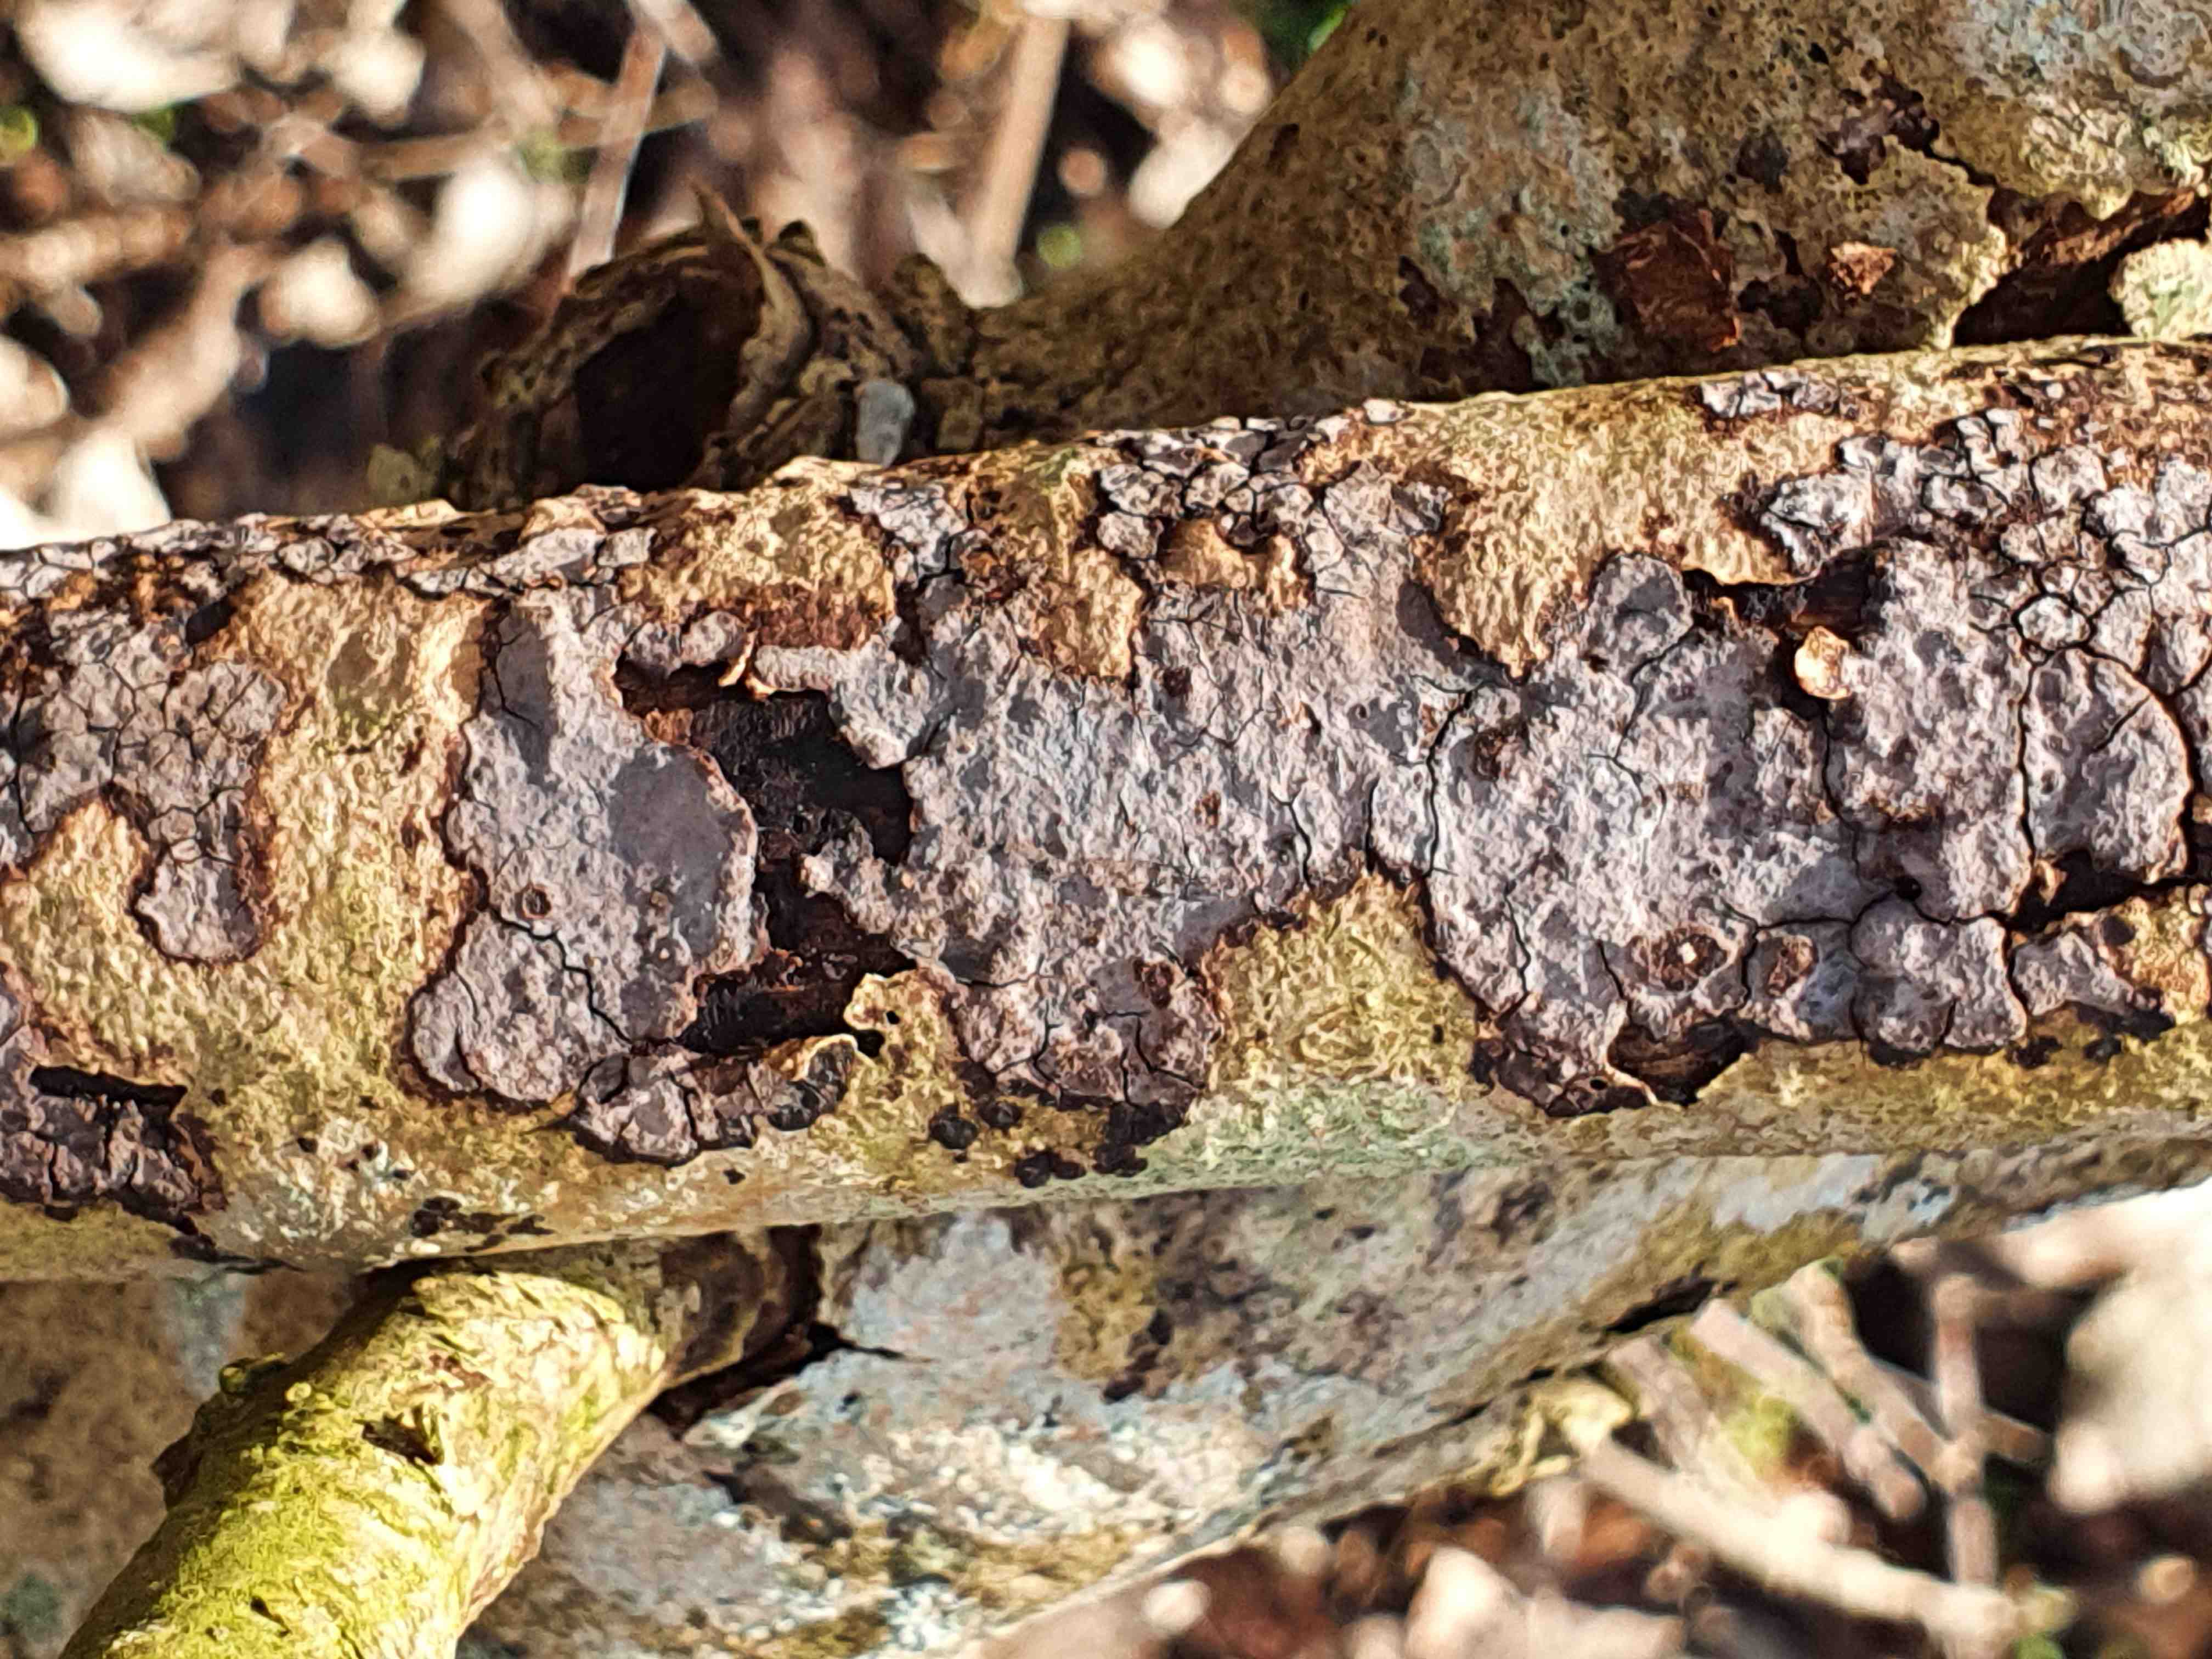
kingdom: Fungi
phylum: Basidiomycota
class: Agaricomycetes
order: Russulales
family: Peniophoraceae
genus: Peniophora
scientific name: Peniophora limitata
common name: mørkrandet voksskind
